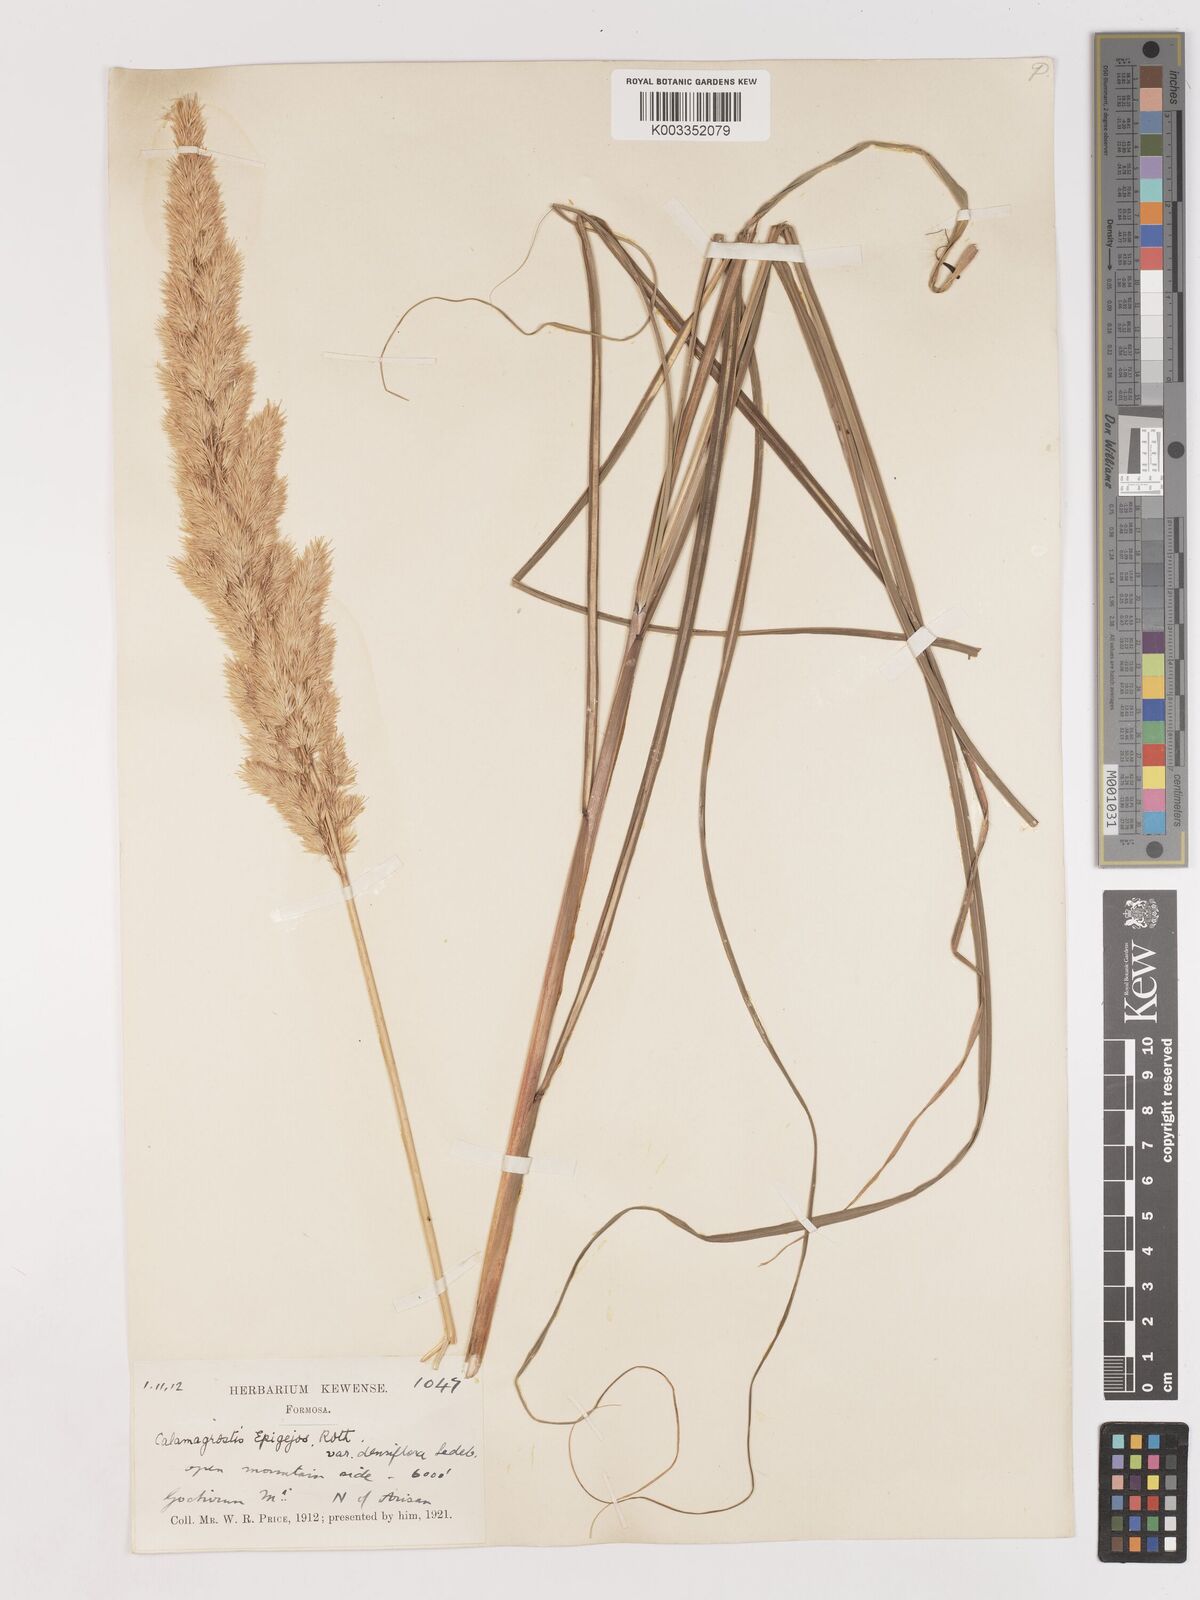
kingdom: Plantae
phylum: Tracheophyta
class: Liliopsida
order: Poales
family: Poaceae
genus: Calamagrostis
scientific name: Calamagrostis epigejos
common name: Wood small-reed
